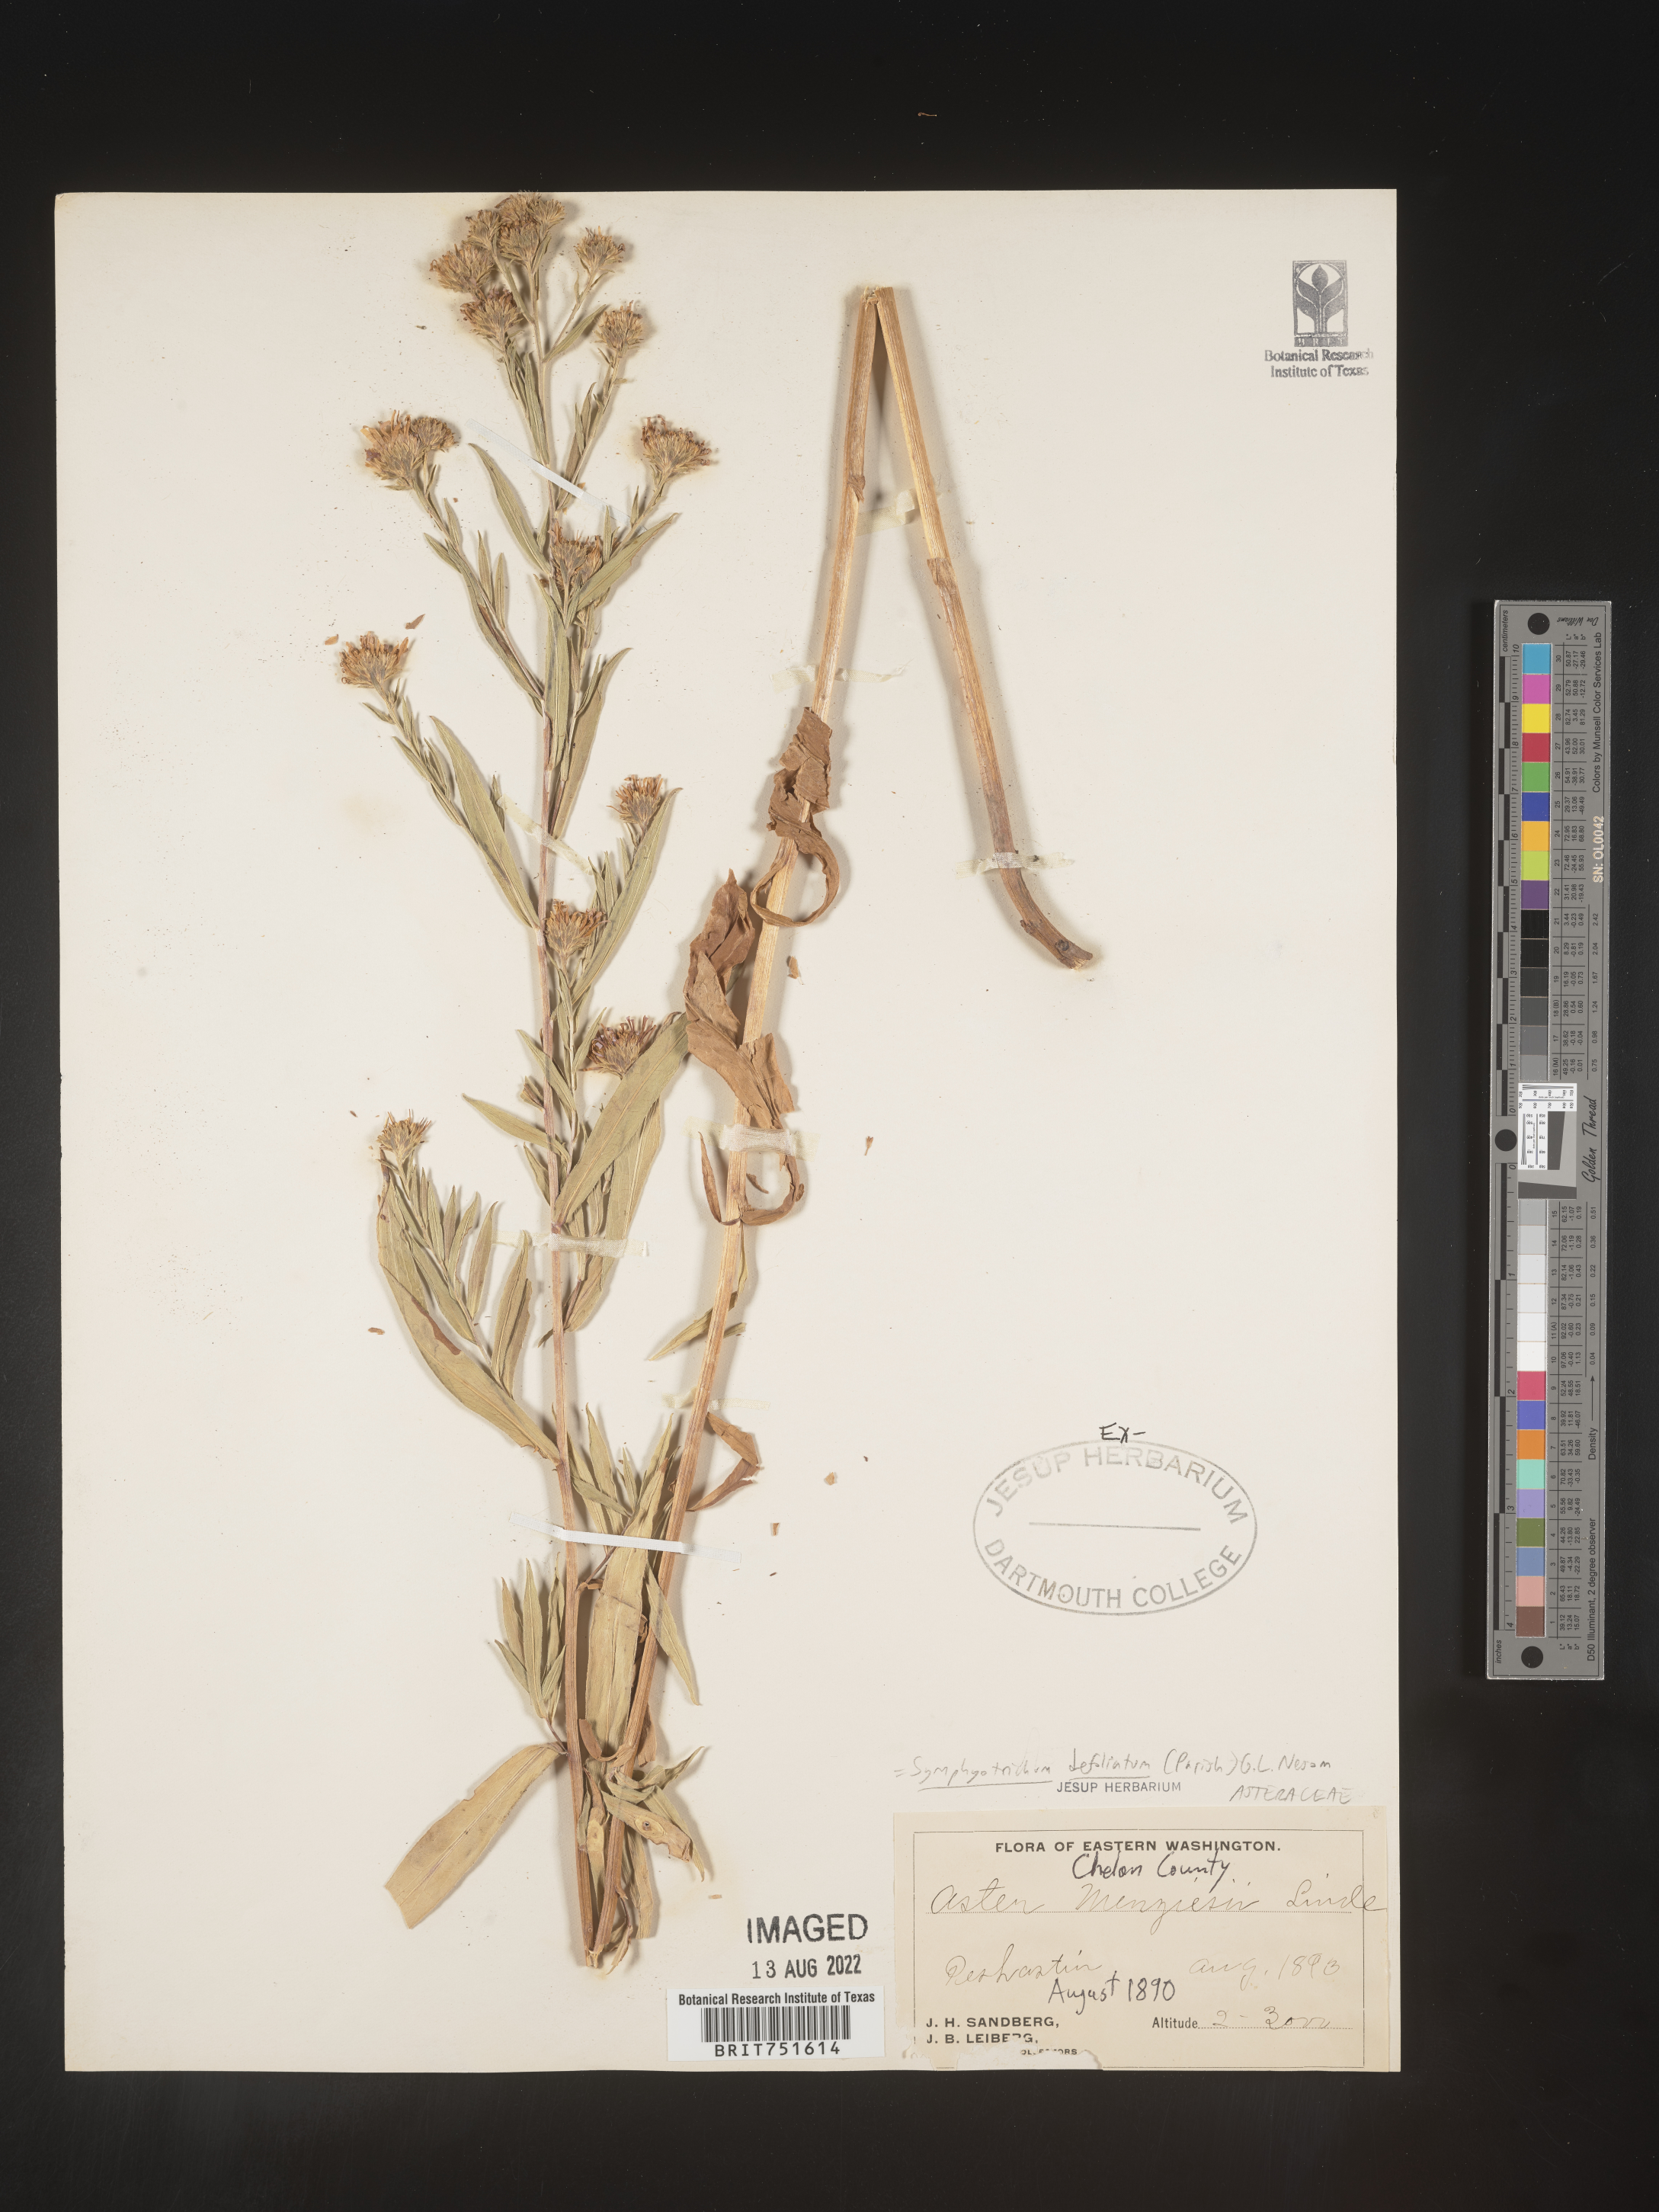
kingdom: Plantae
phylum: Tracheophyta
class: Magnoliopsida
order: Asterales
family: Asteraceae
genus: Symphyotrichum
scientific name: Symphyotrichum defoliatum
